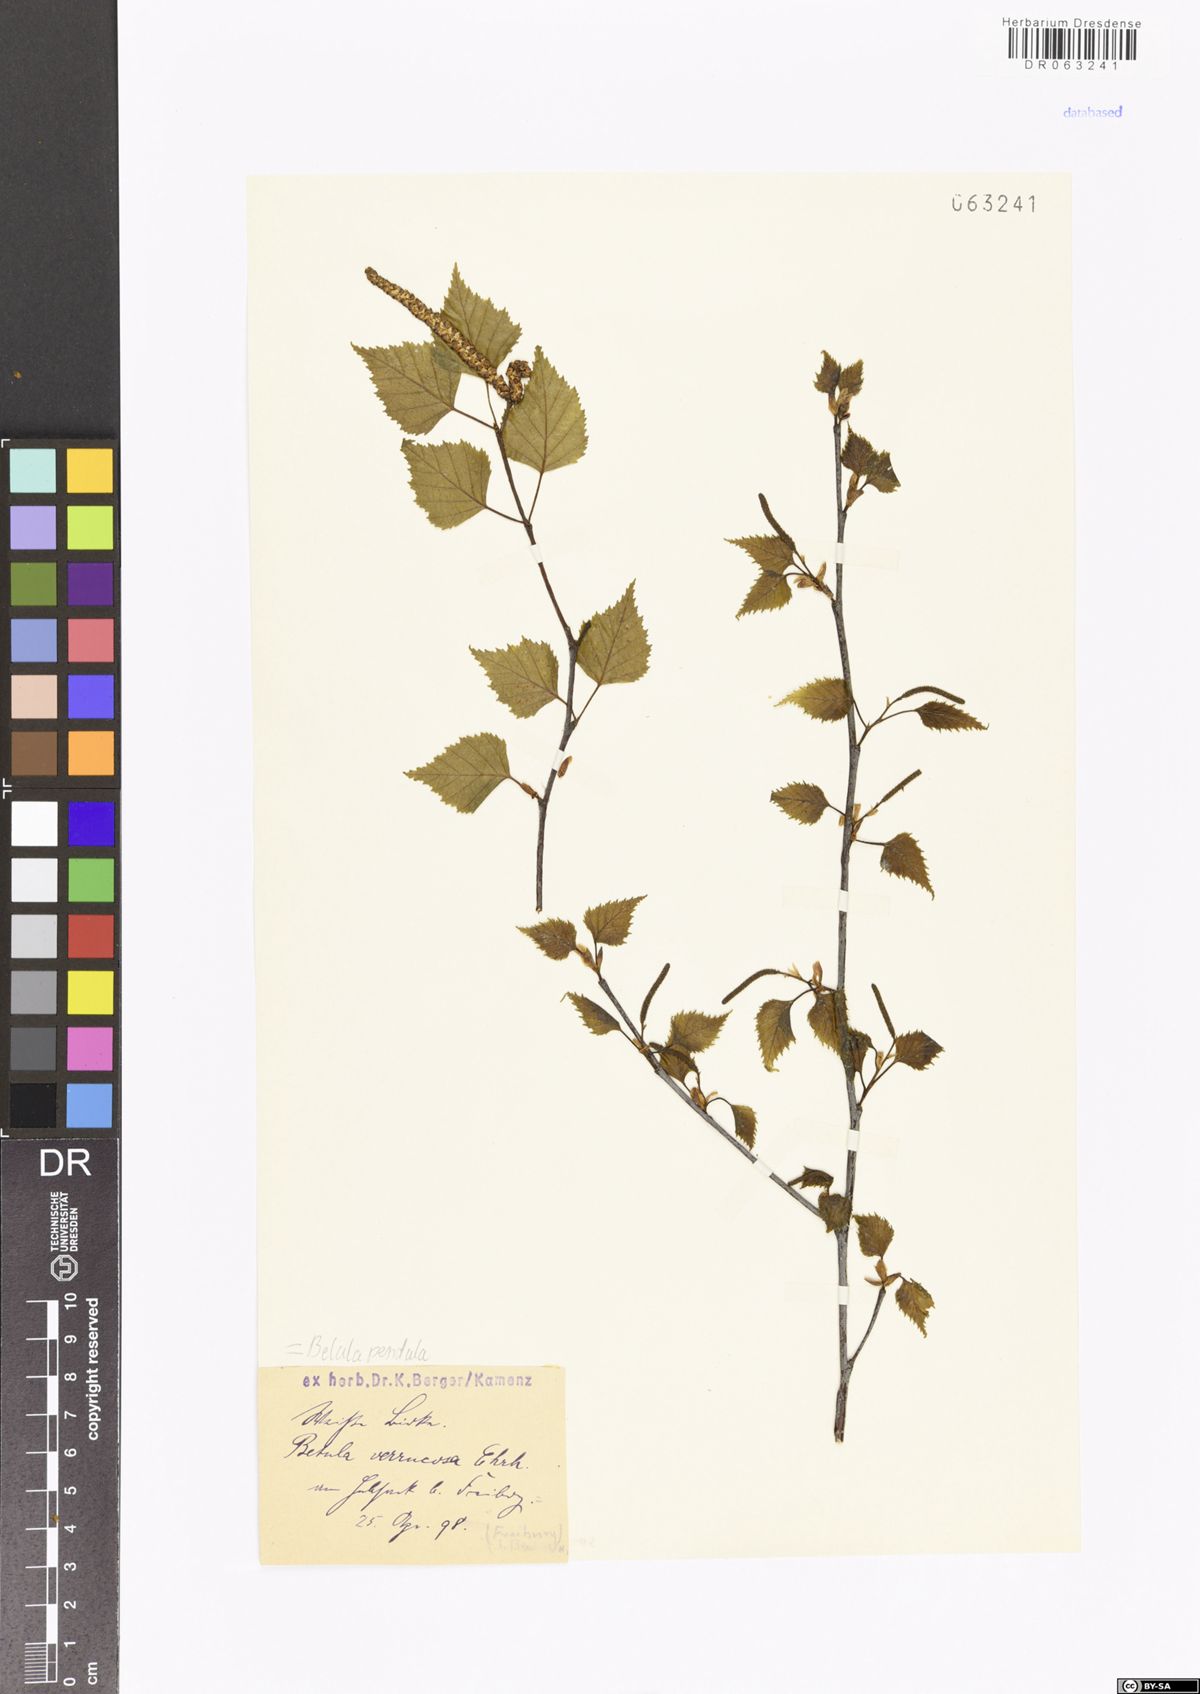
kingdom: Plantae
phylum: Tracheophyta
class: Magnoliopsida
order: Fagales
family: Betulaceae
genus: Betula
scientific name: Betula pendula
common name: Silver birch
